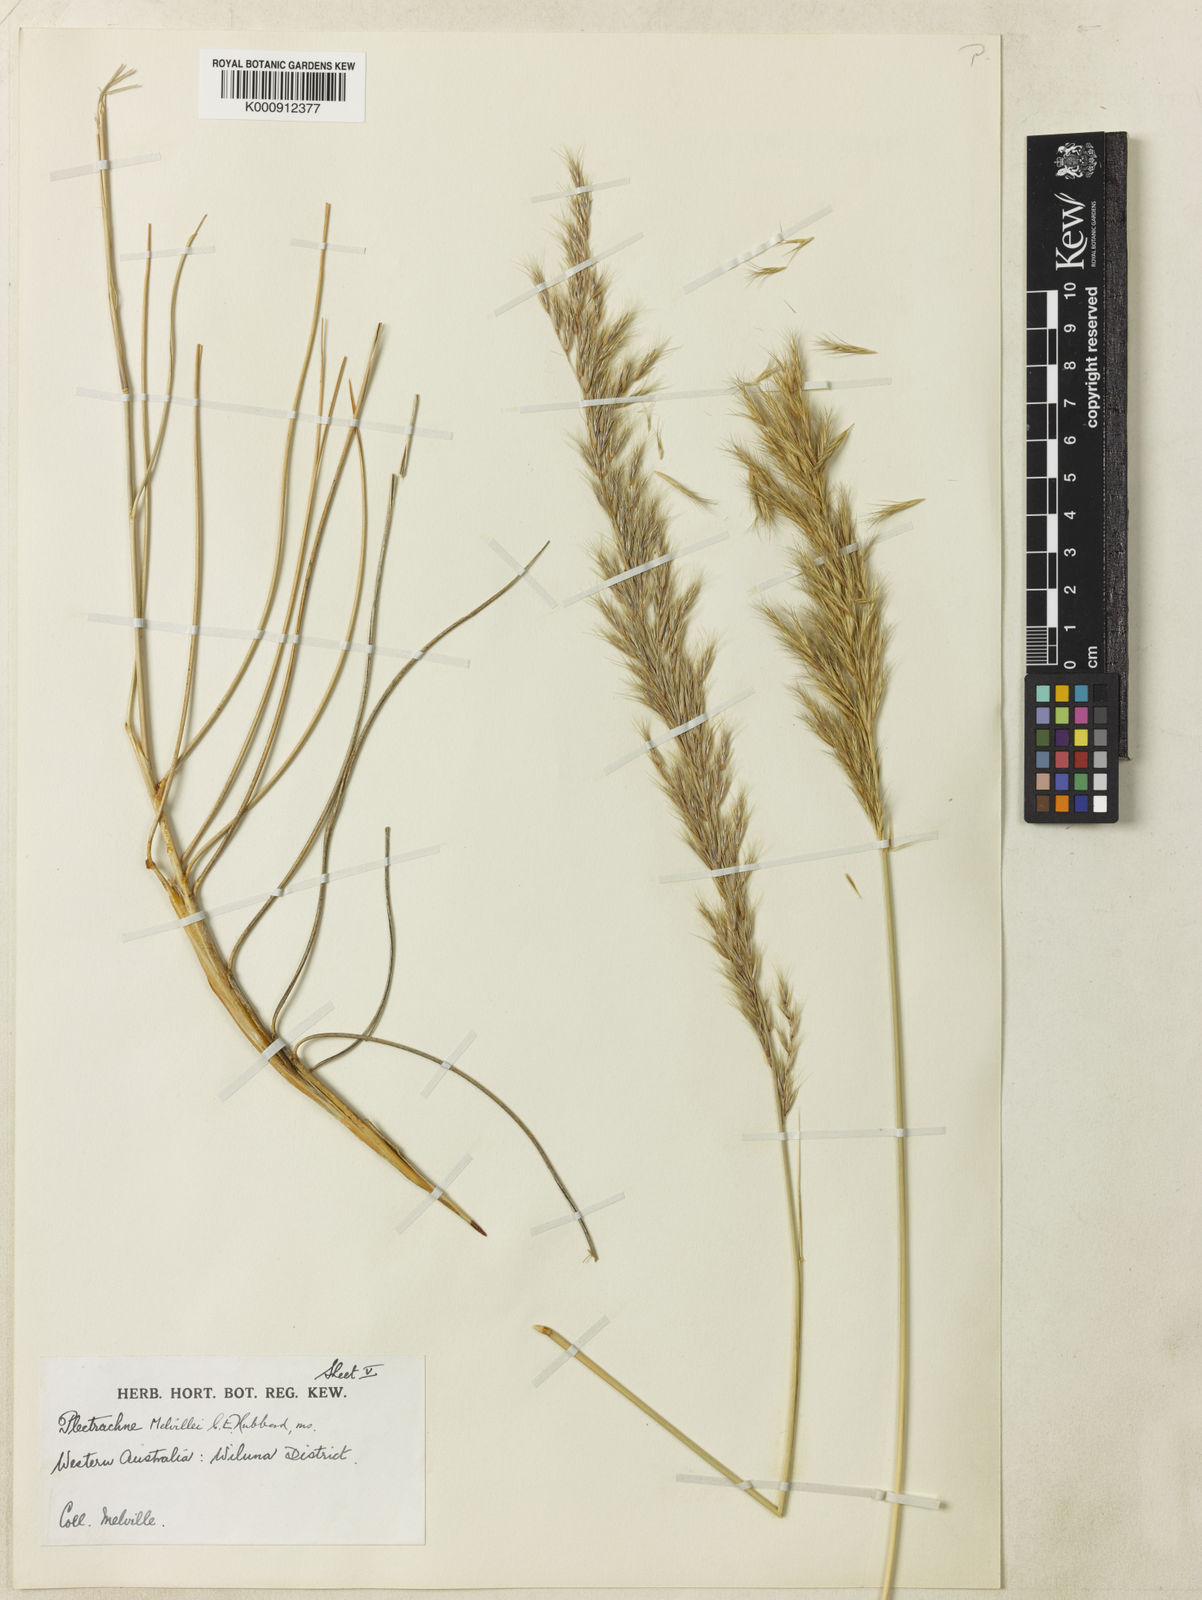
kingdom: Plantae
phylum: Tracheophyta
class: Liliopsida
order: Poales
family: Poaceae
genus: Triodia
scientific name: Triodia melvillei
